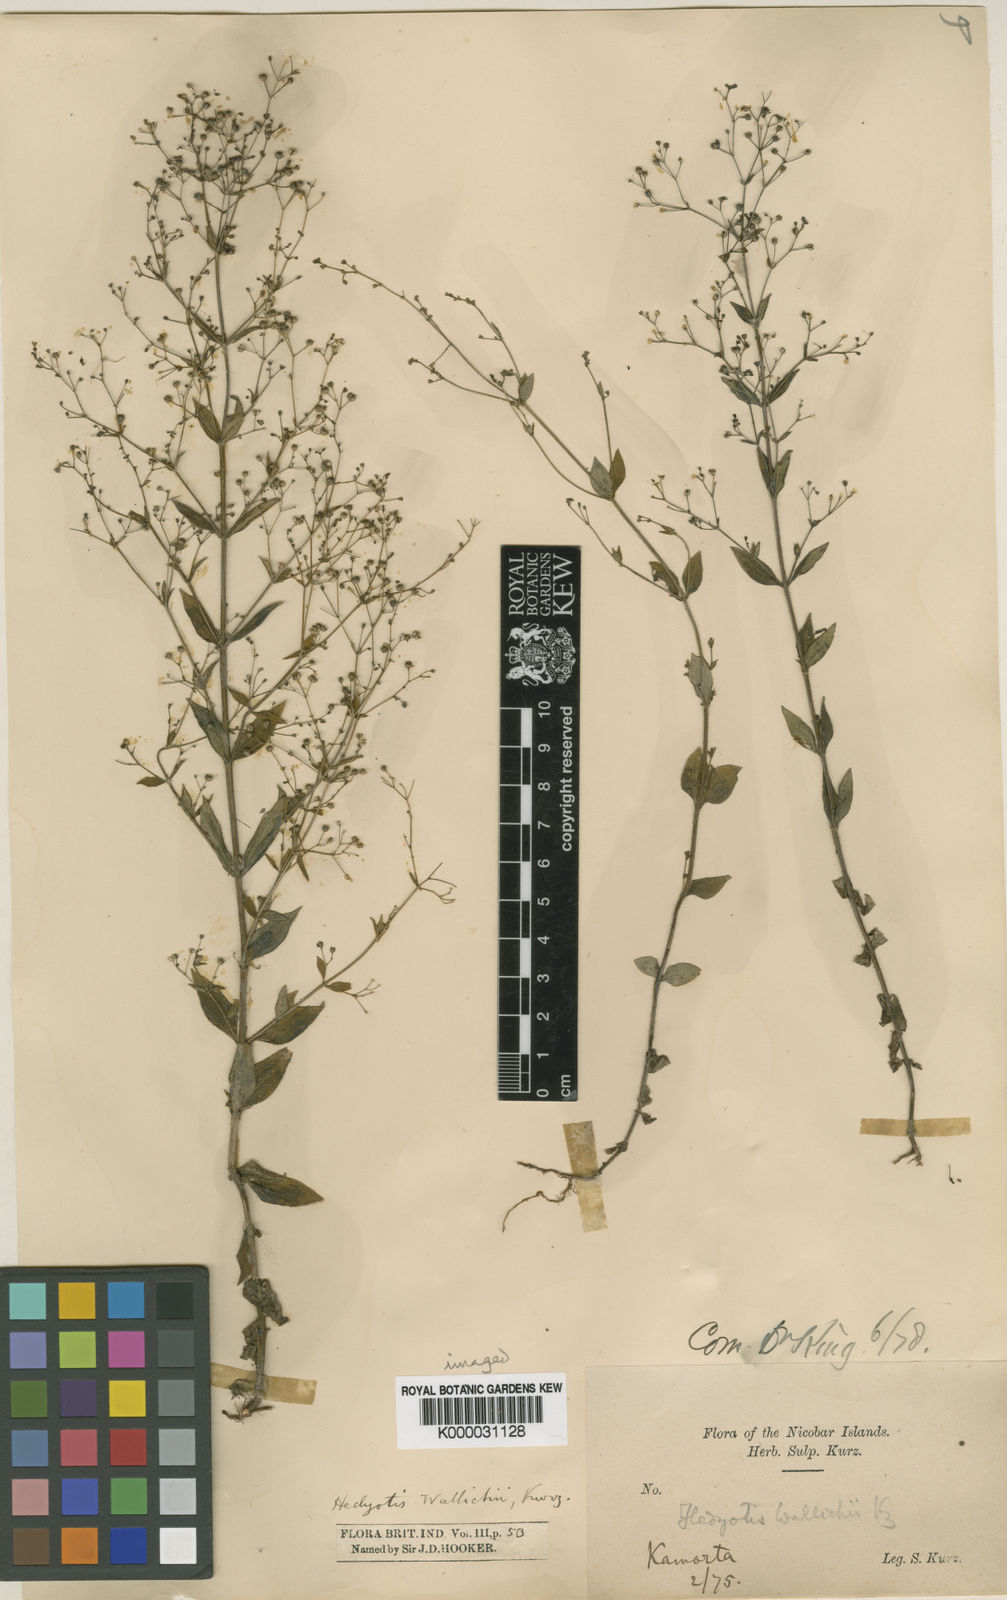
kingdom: Plantae
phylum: Tracheophyta
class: Magnoliopsida
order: Gentianales
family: Rubiaceae
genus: Hedyotis
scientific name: Hedyotis kurzii
